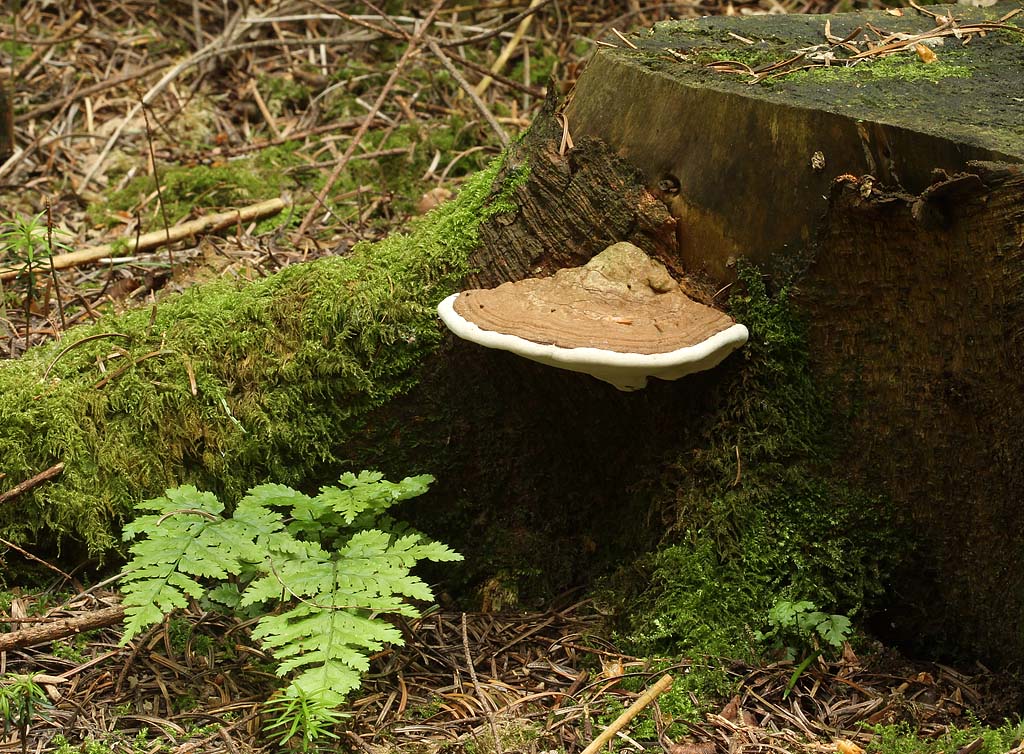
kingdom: Fungi
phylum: Basidiomycota
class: Agaricomycetes
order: Polyporales
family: Polyporaceae
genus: Ganoderma
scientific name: Ganoderma applanatum
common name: flad lakporesvamp
